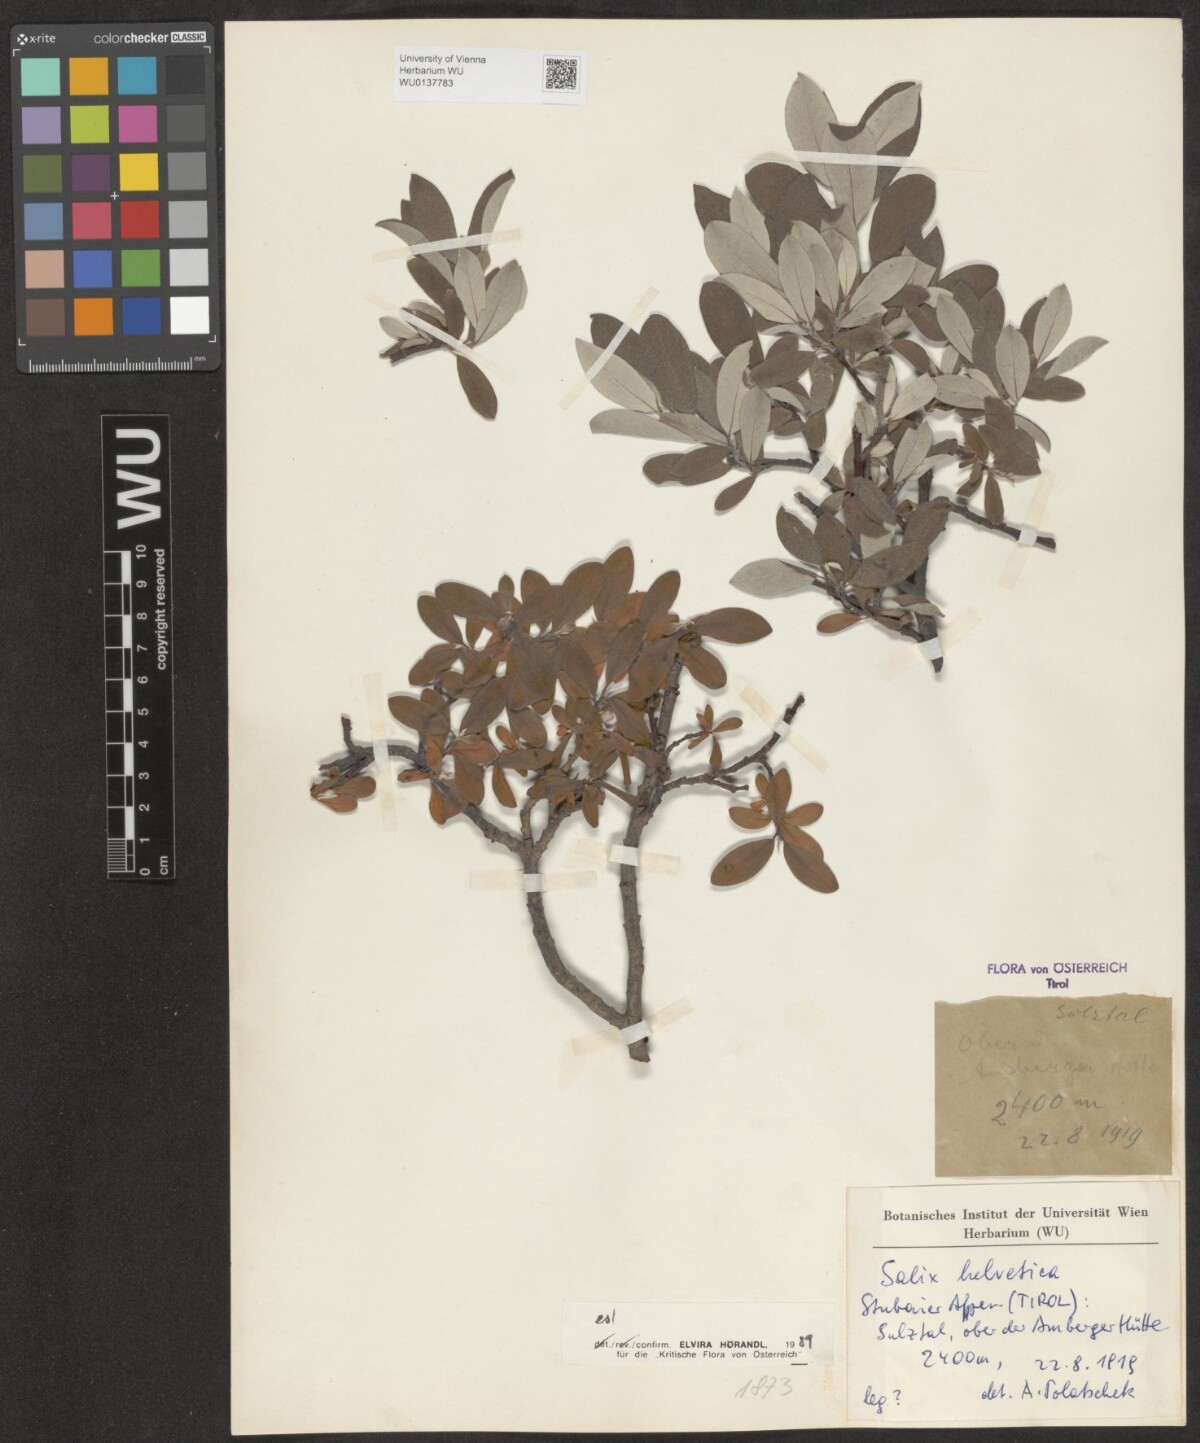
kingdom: Plantae
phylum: Tracheophyta
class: Magnoliopsida
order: Malpighiales
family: Salicaceae
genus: Salix
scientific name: Salix helvetica
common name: Swiss willow
